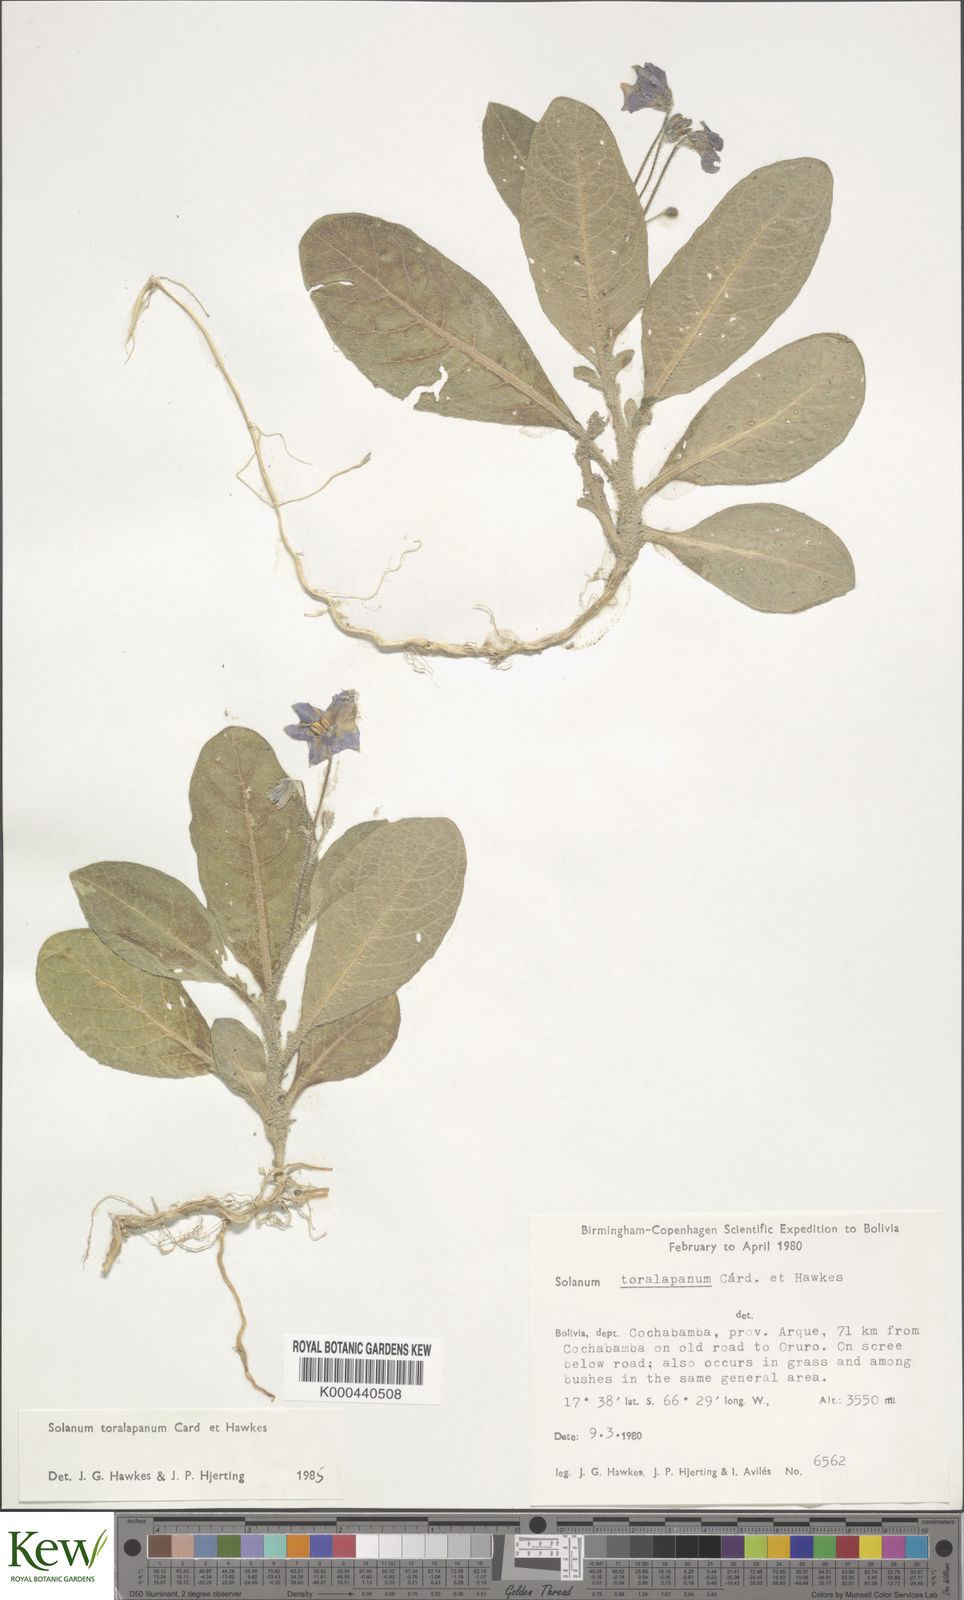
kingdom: Plantae
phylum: Tracheophyta
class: Magnoliopsida
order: Solanales
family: Solanaceae
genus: Solanum
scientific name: Solanum boliviense
